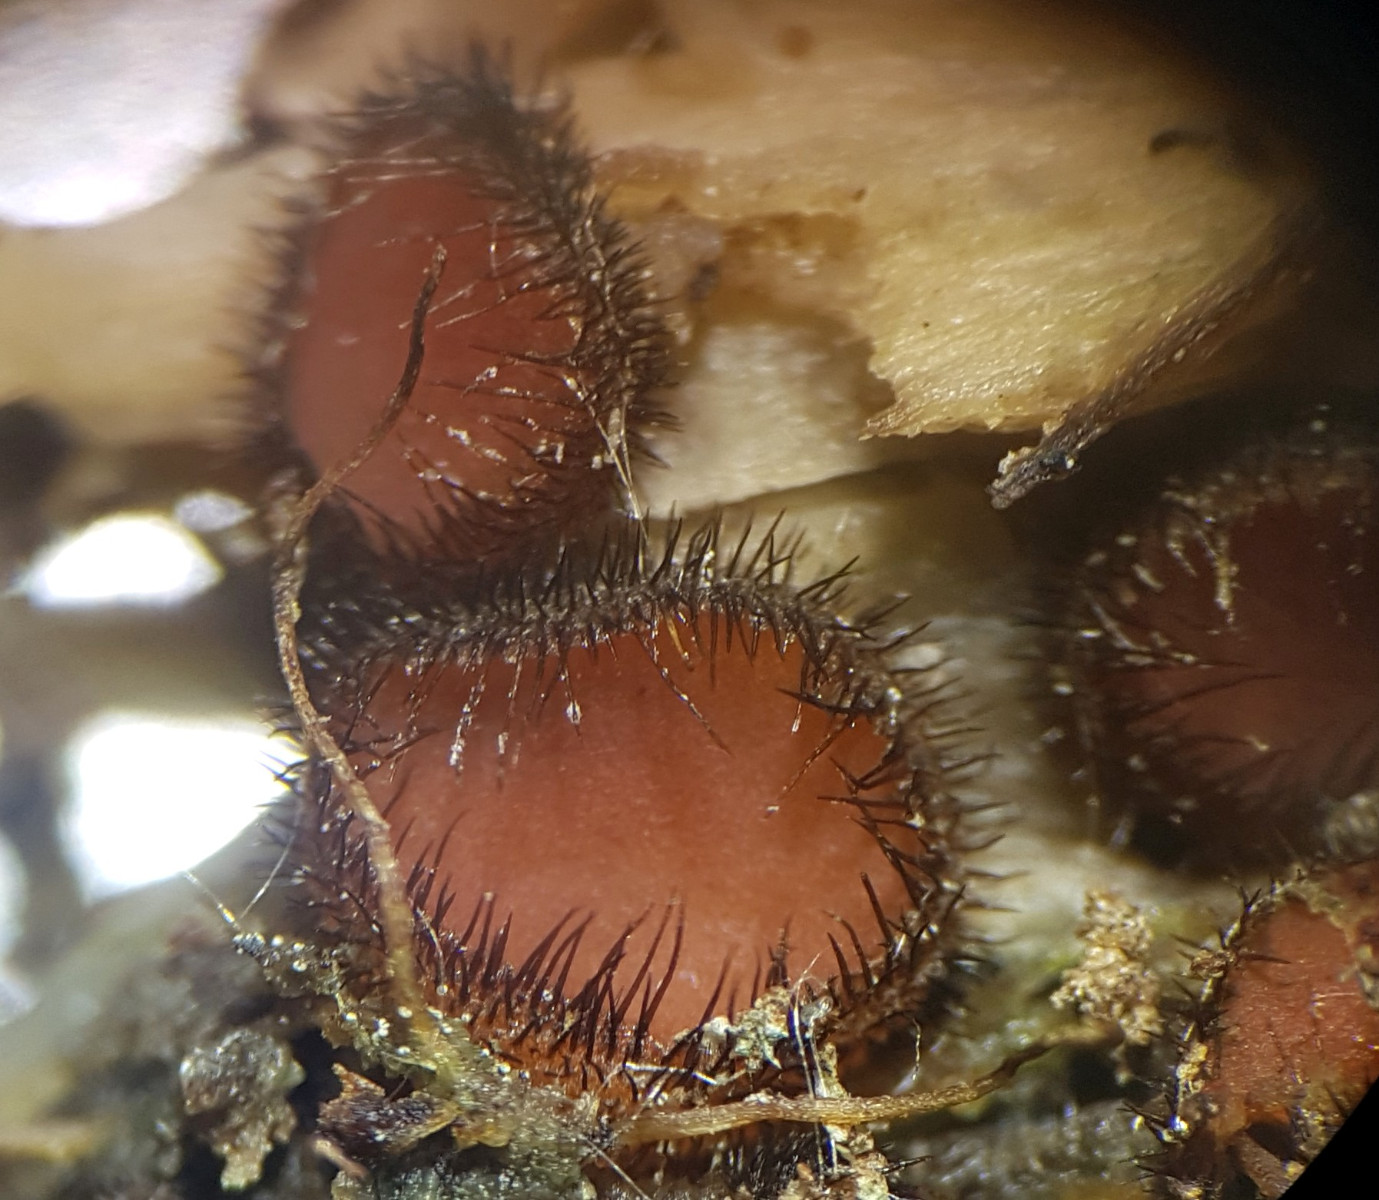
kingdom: Fungi
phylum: Ascomycota
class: Pezizomycetes
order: Pezizales
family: Pyronemataceae
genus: Scutellinia
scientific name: Scutellinia scutellata
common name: frynset skjoldbæger
